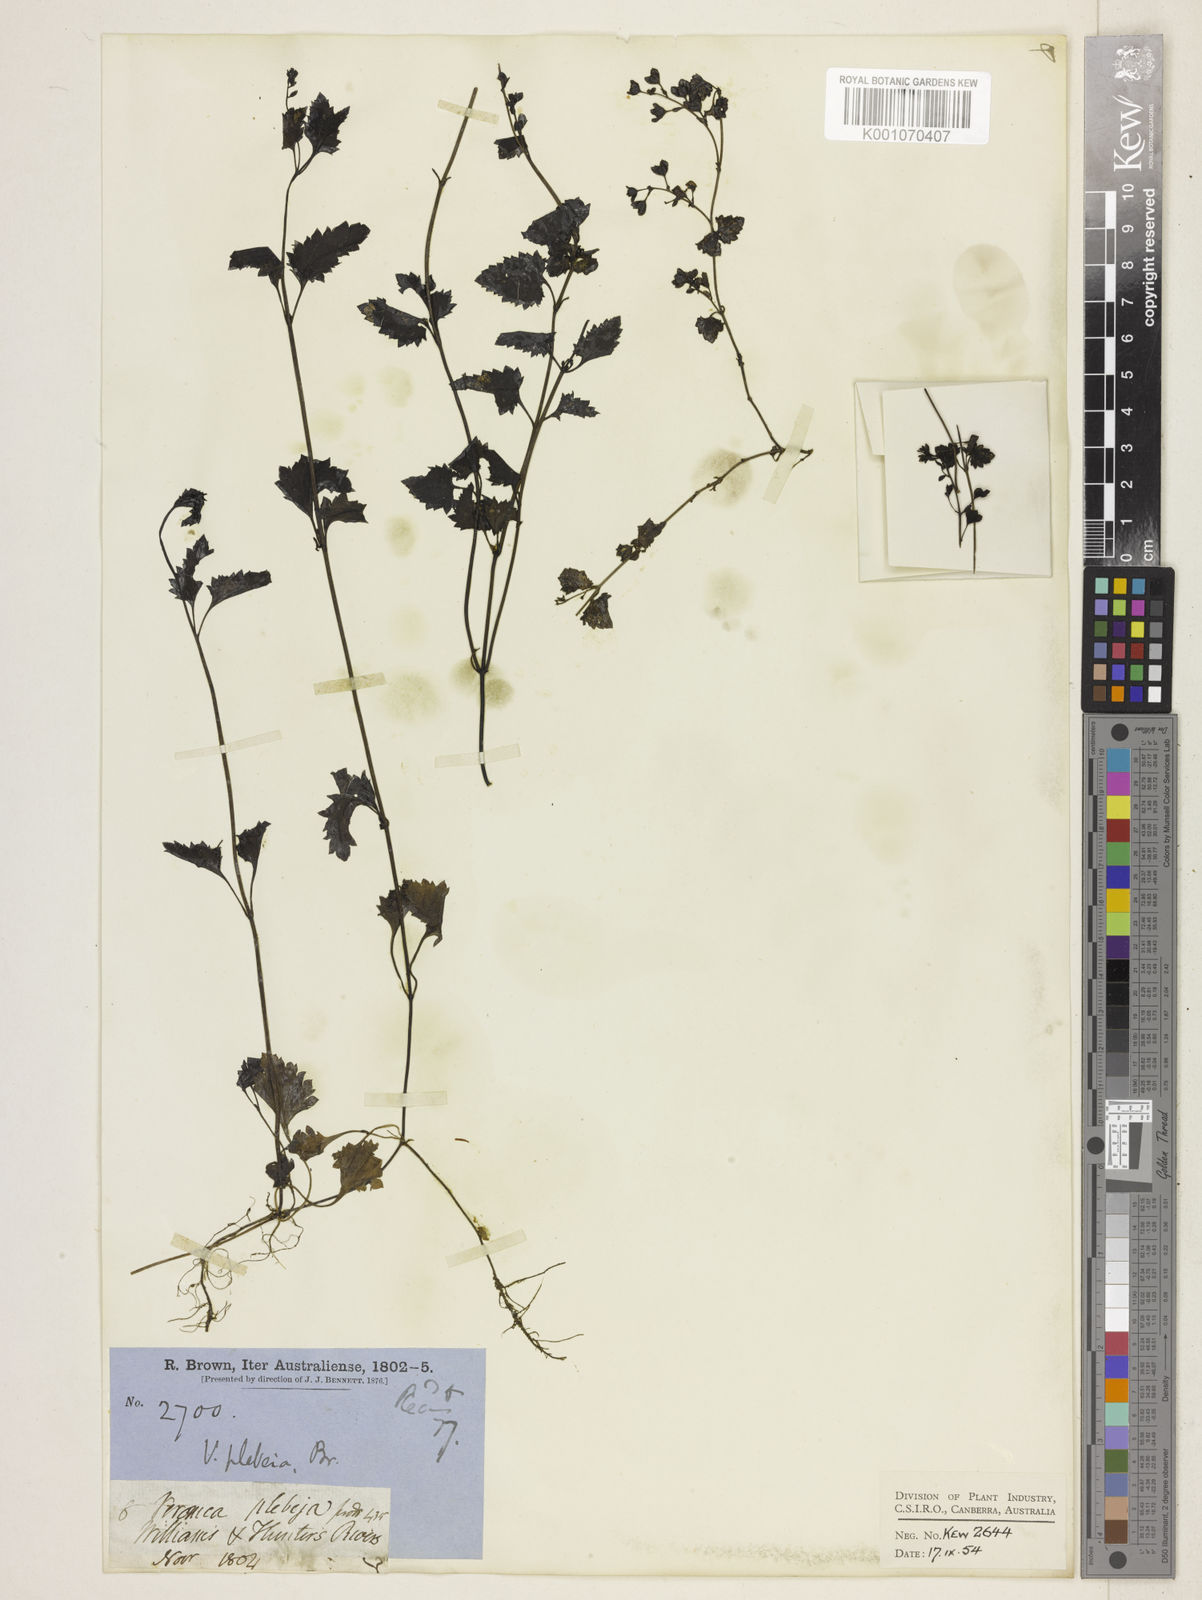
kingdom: Plantae
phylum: Tracheophyta
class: Magnoliopsida
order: Lamiales
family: Plantaginaceae
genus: Veronica
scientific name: Veronica plebeia
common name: Speedwell
